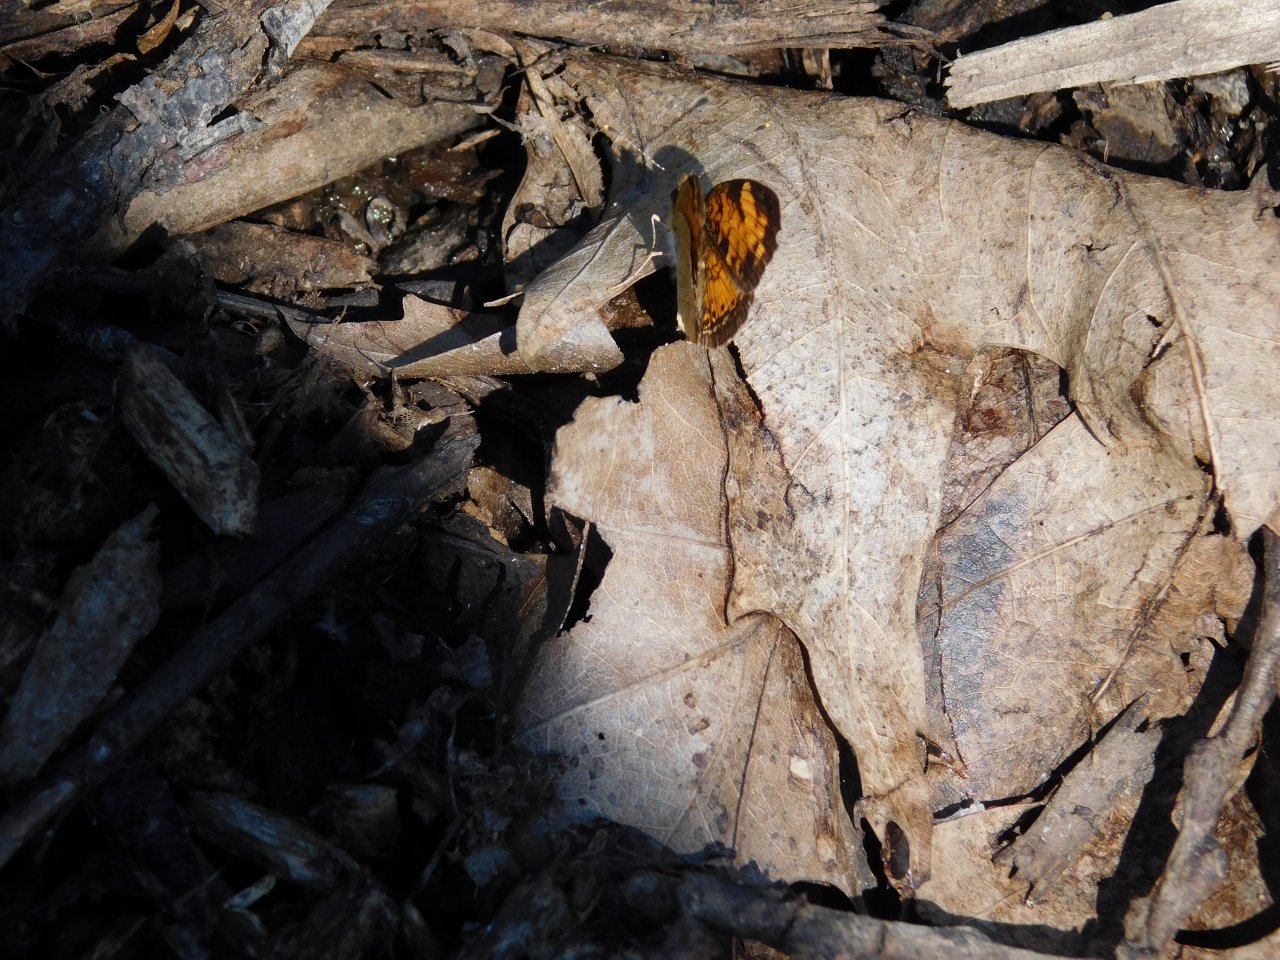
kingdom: Animalia
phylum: Arthropoda
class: Insecta
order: Lepidoptera
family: Nymphalidae
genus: Phyciodes
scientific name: Phyciodes tharos
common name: Northern Crescent
